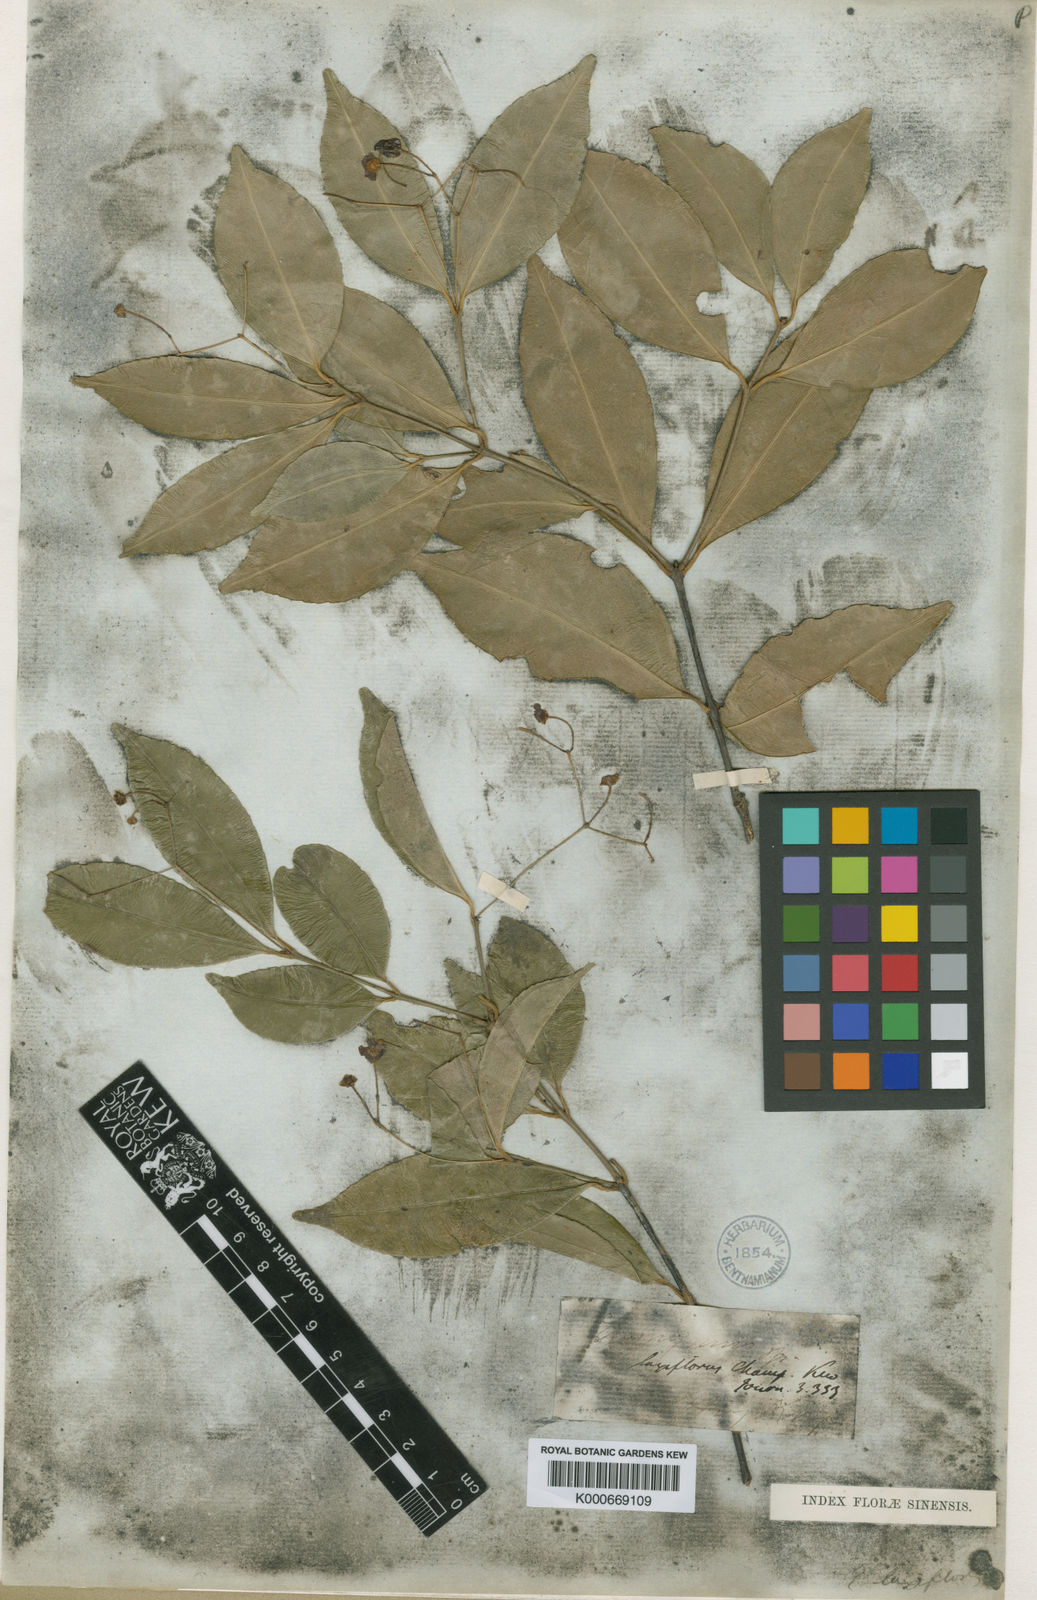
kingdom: Plantae
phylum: Tracheophyta
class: Magnoliopsida
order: Celastrales
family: Celastraceae
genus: Euonymus
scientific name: Euonymus laxiflorus
